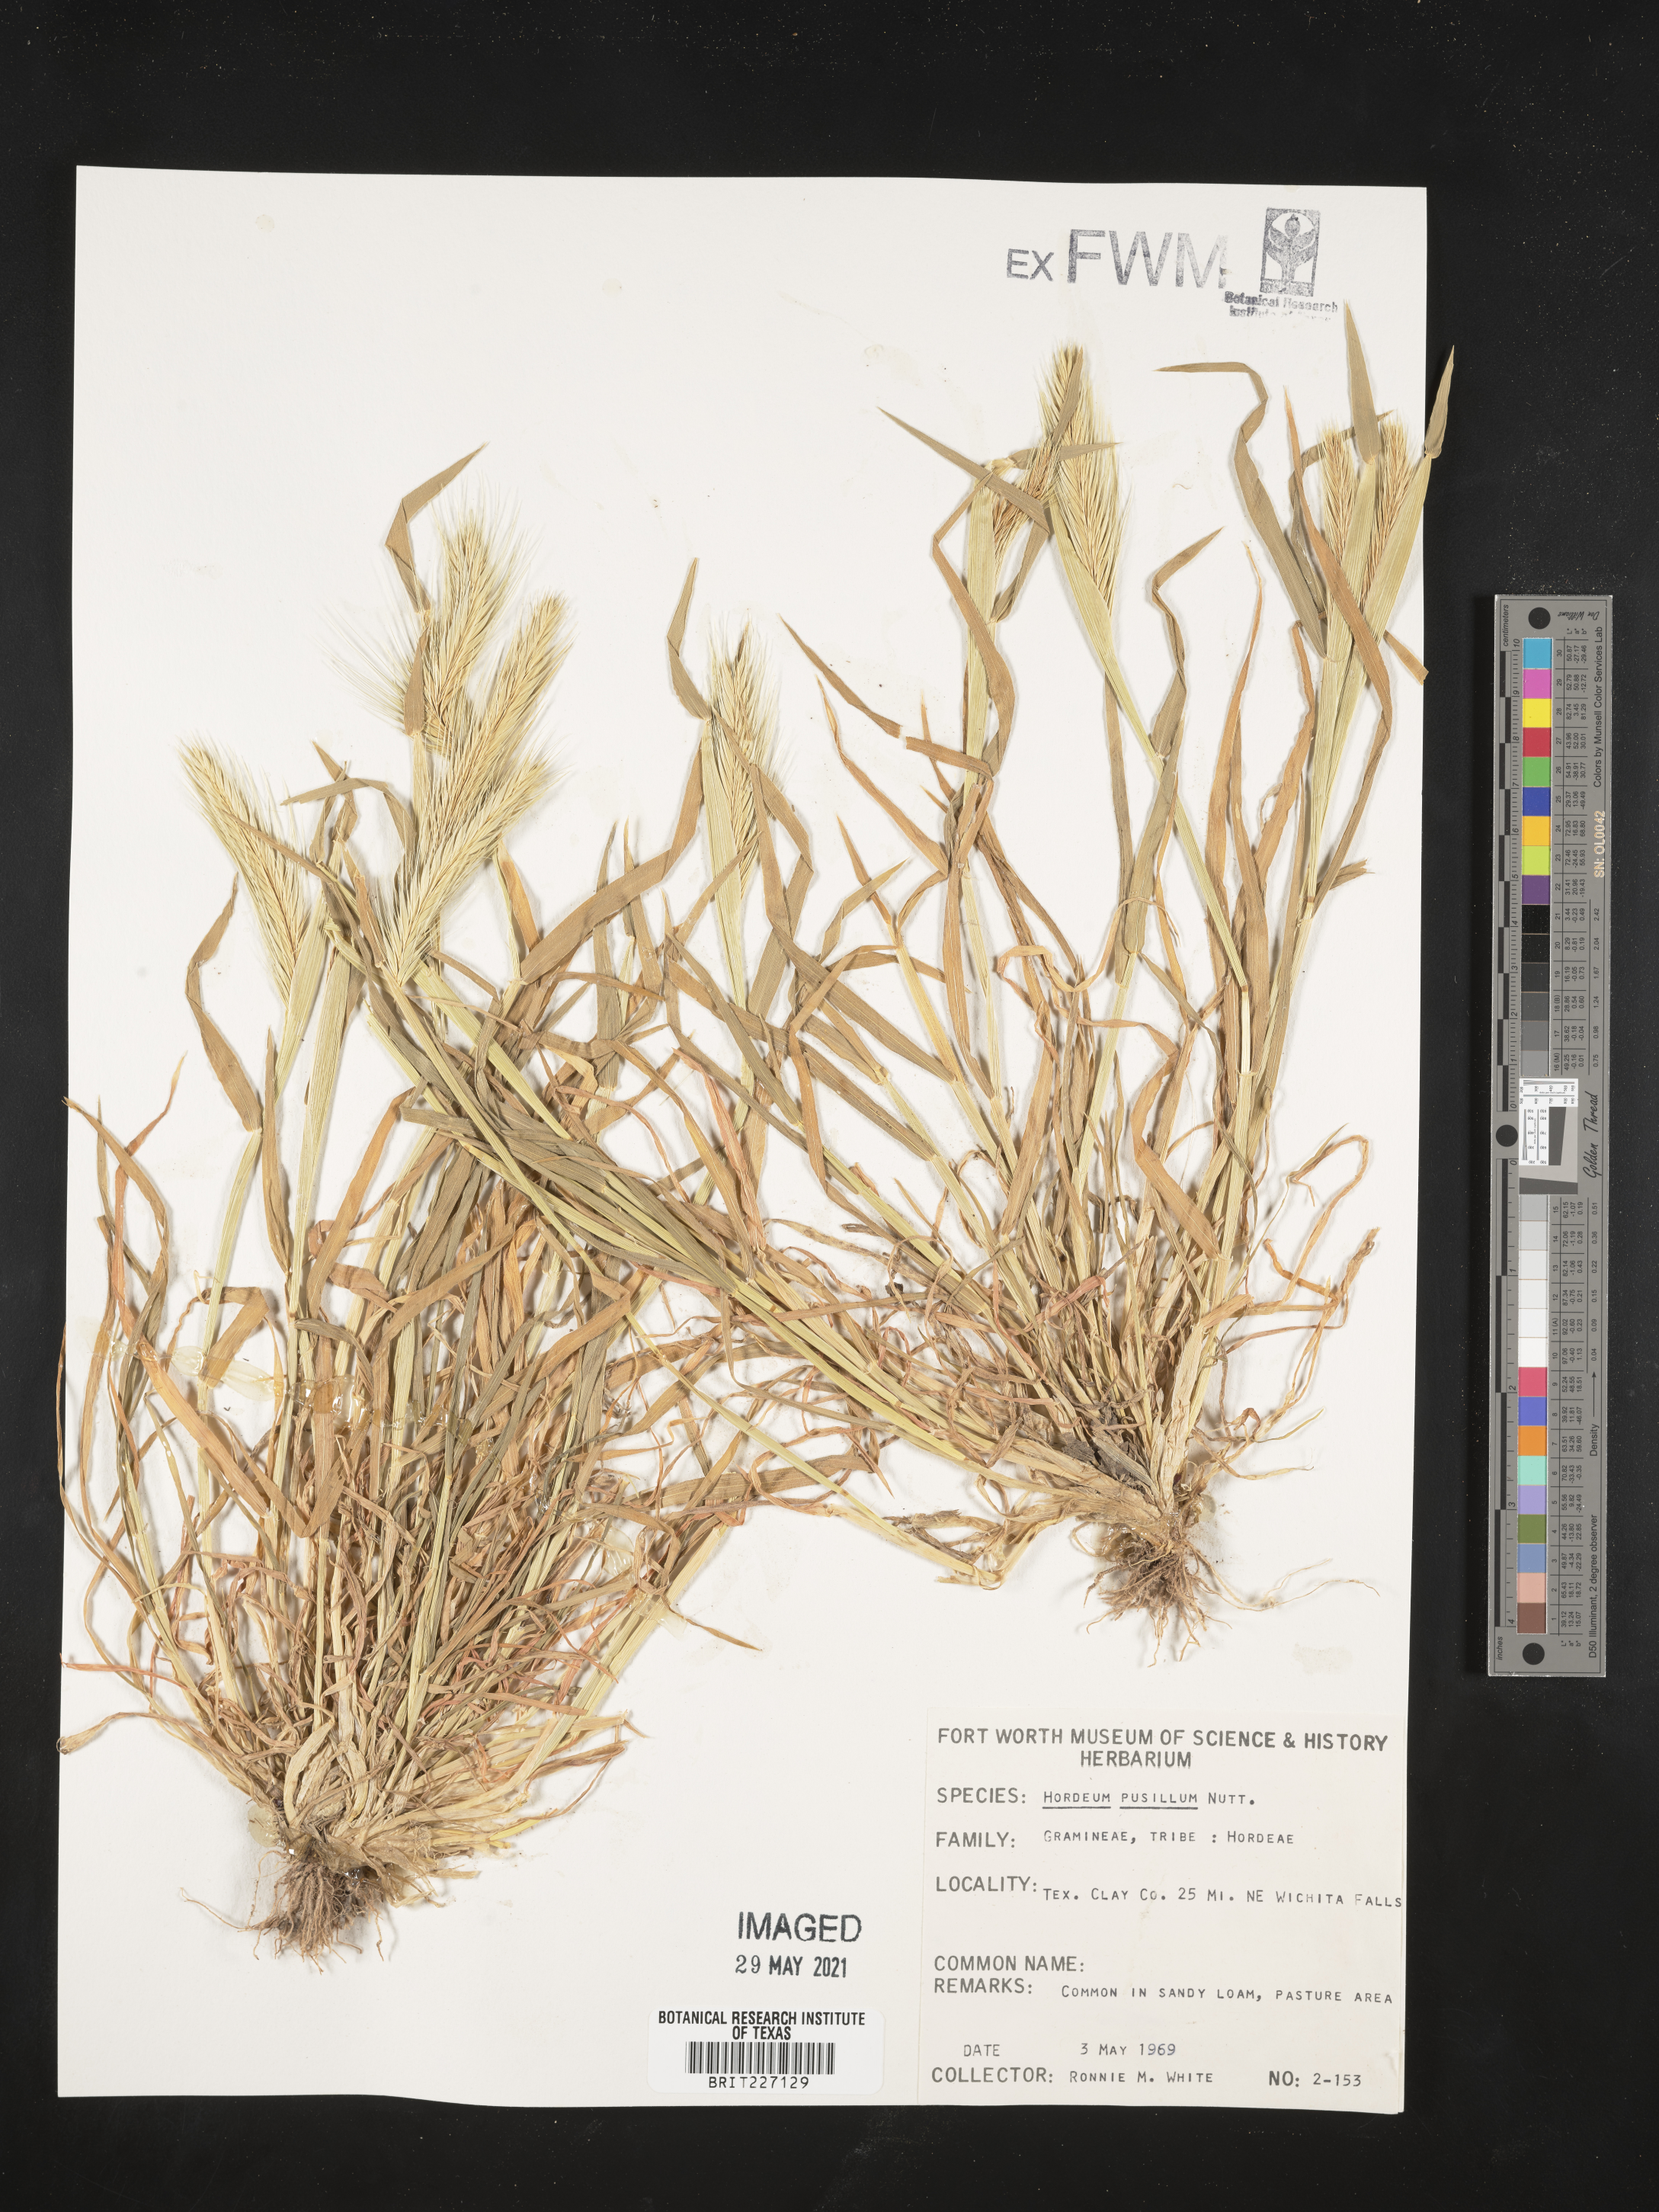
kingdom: Plantae
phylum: Tracheophyta
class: Liliopsida
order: Poales
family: Poaceae
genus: Hordeum
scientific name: Hordeum pusillum
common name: Little barley
